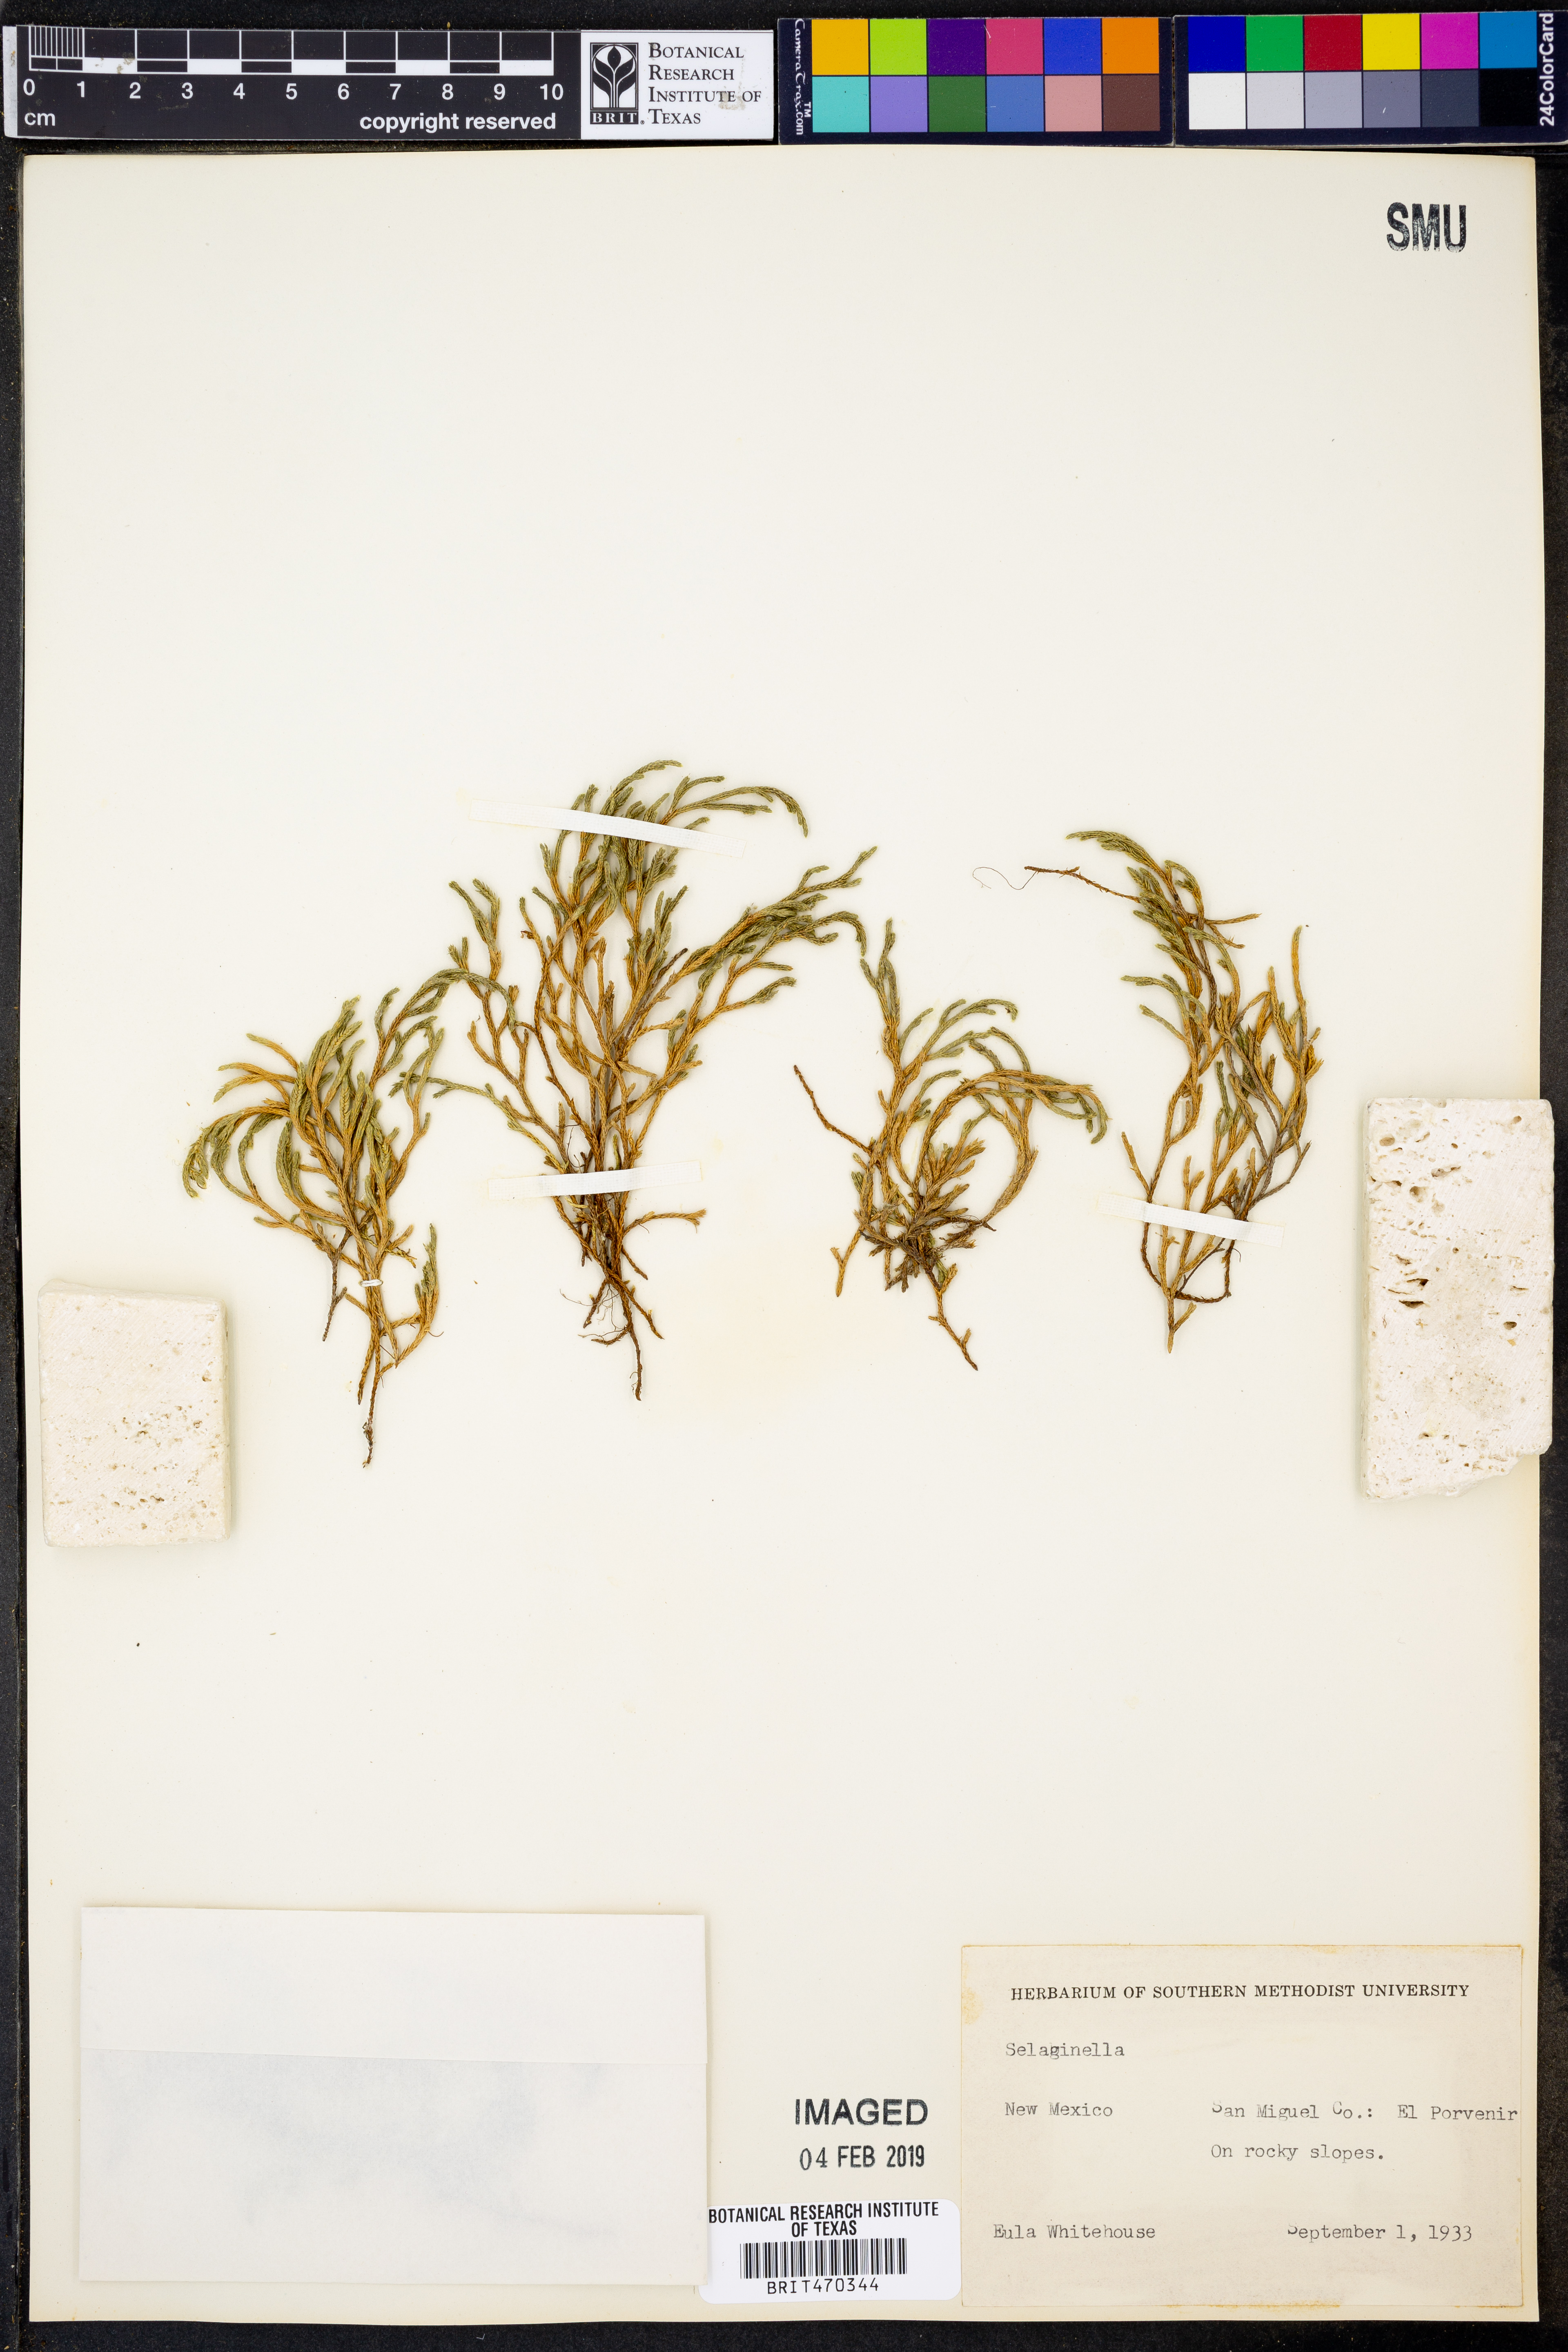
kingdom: Plantae
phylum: Tracheophyta
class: Lycopodiopsida
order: Selaginellales
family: Selaginellaceae
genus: Selaginella
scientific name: Selaginella
